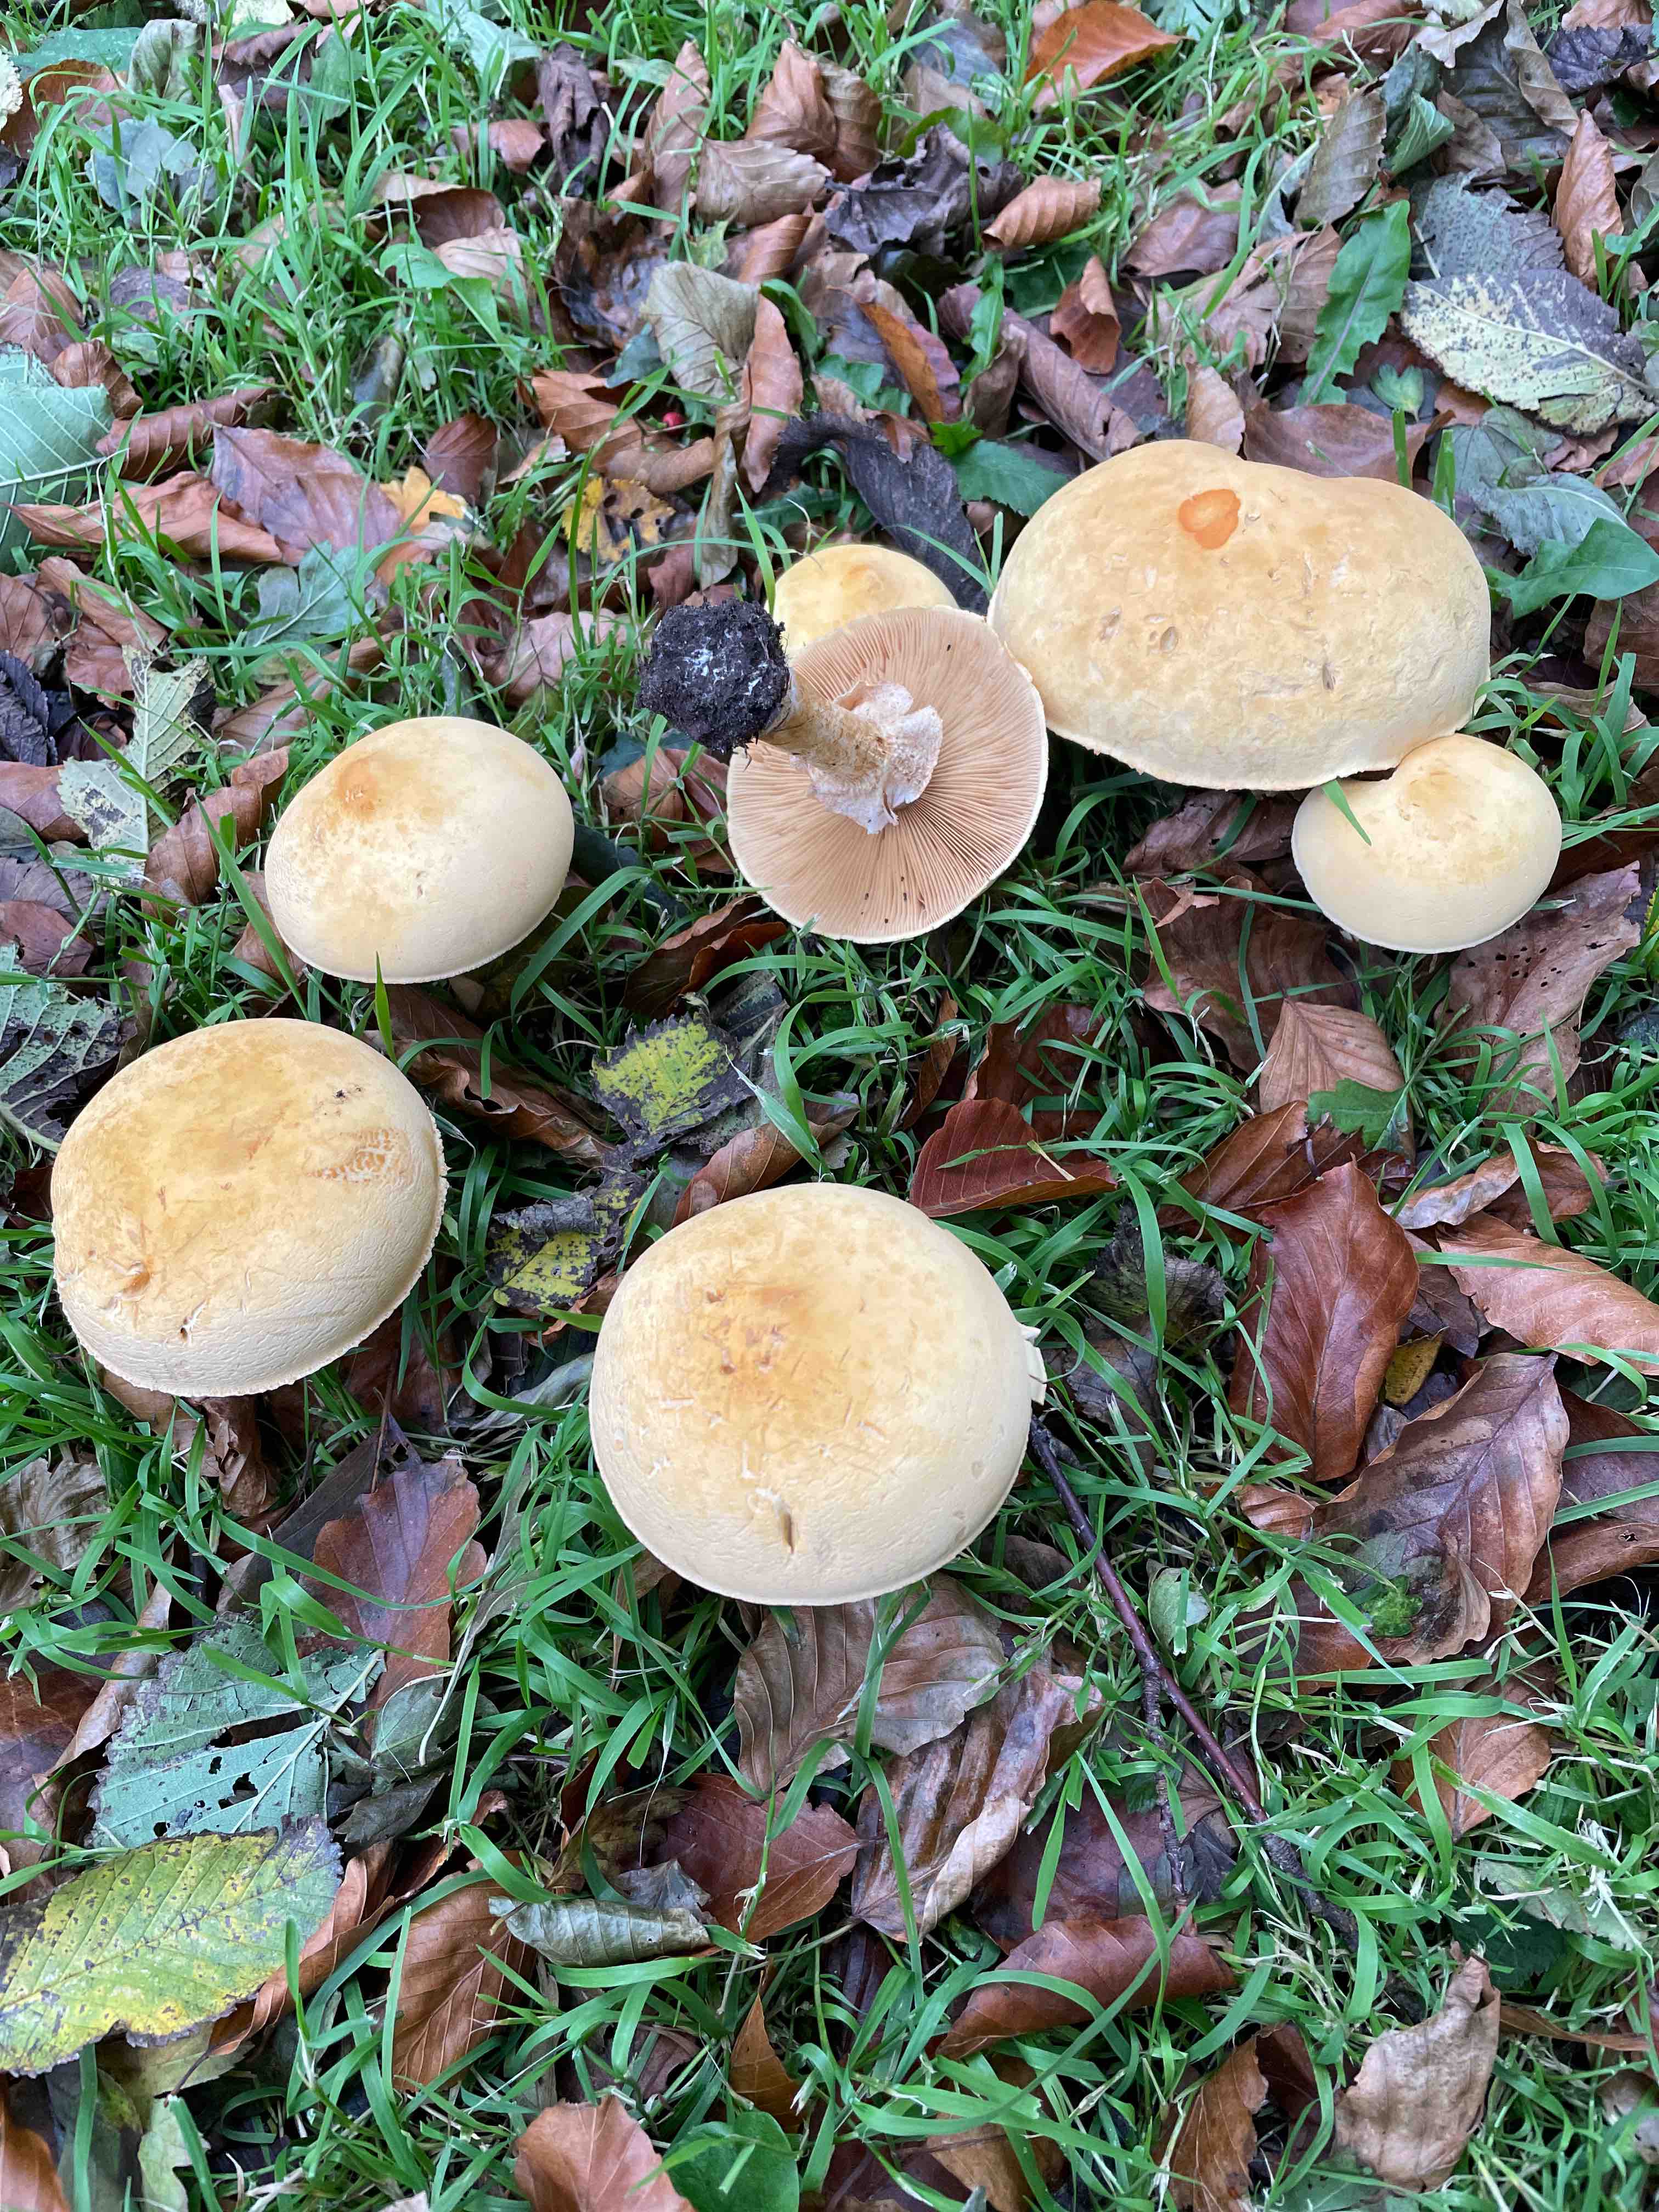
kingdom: Fungi
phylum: Basidiomycota
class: Agaricomycetes
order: Agaricales
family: Tricholomataceae
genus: Phaeolepiota
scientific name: Phaeolepiota aurea
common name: gyldenhat
